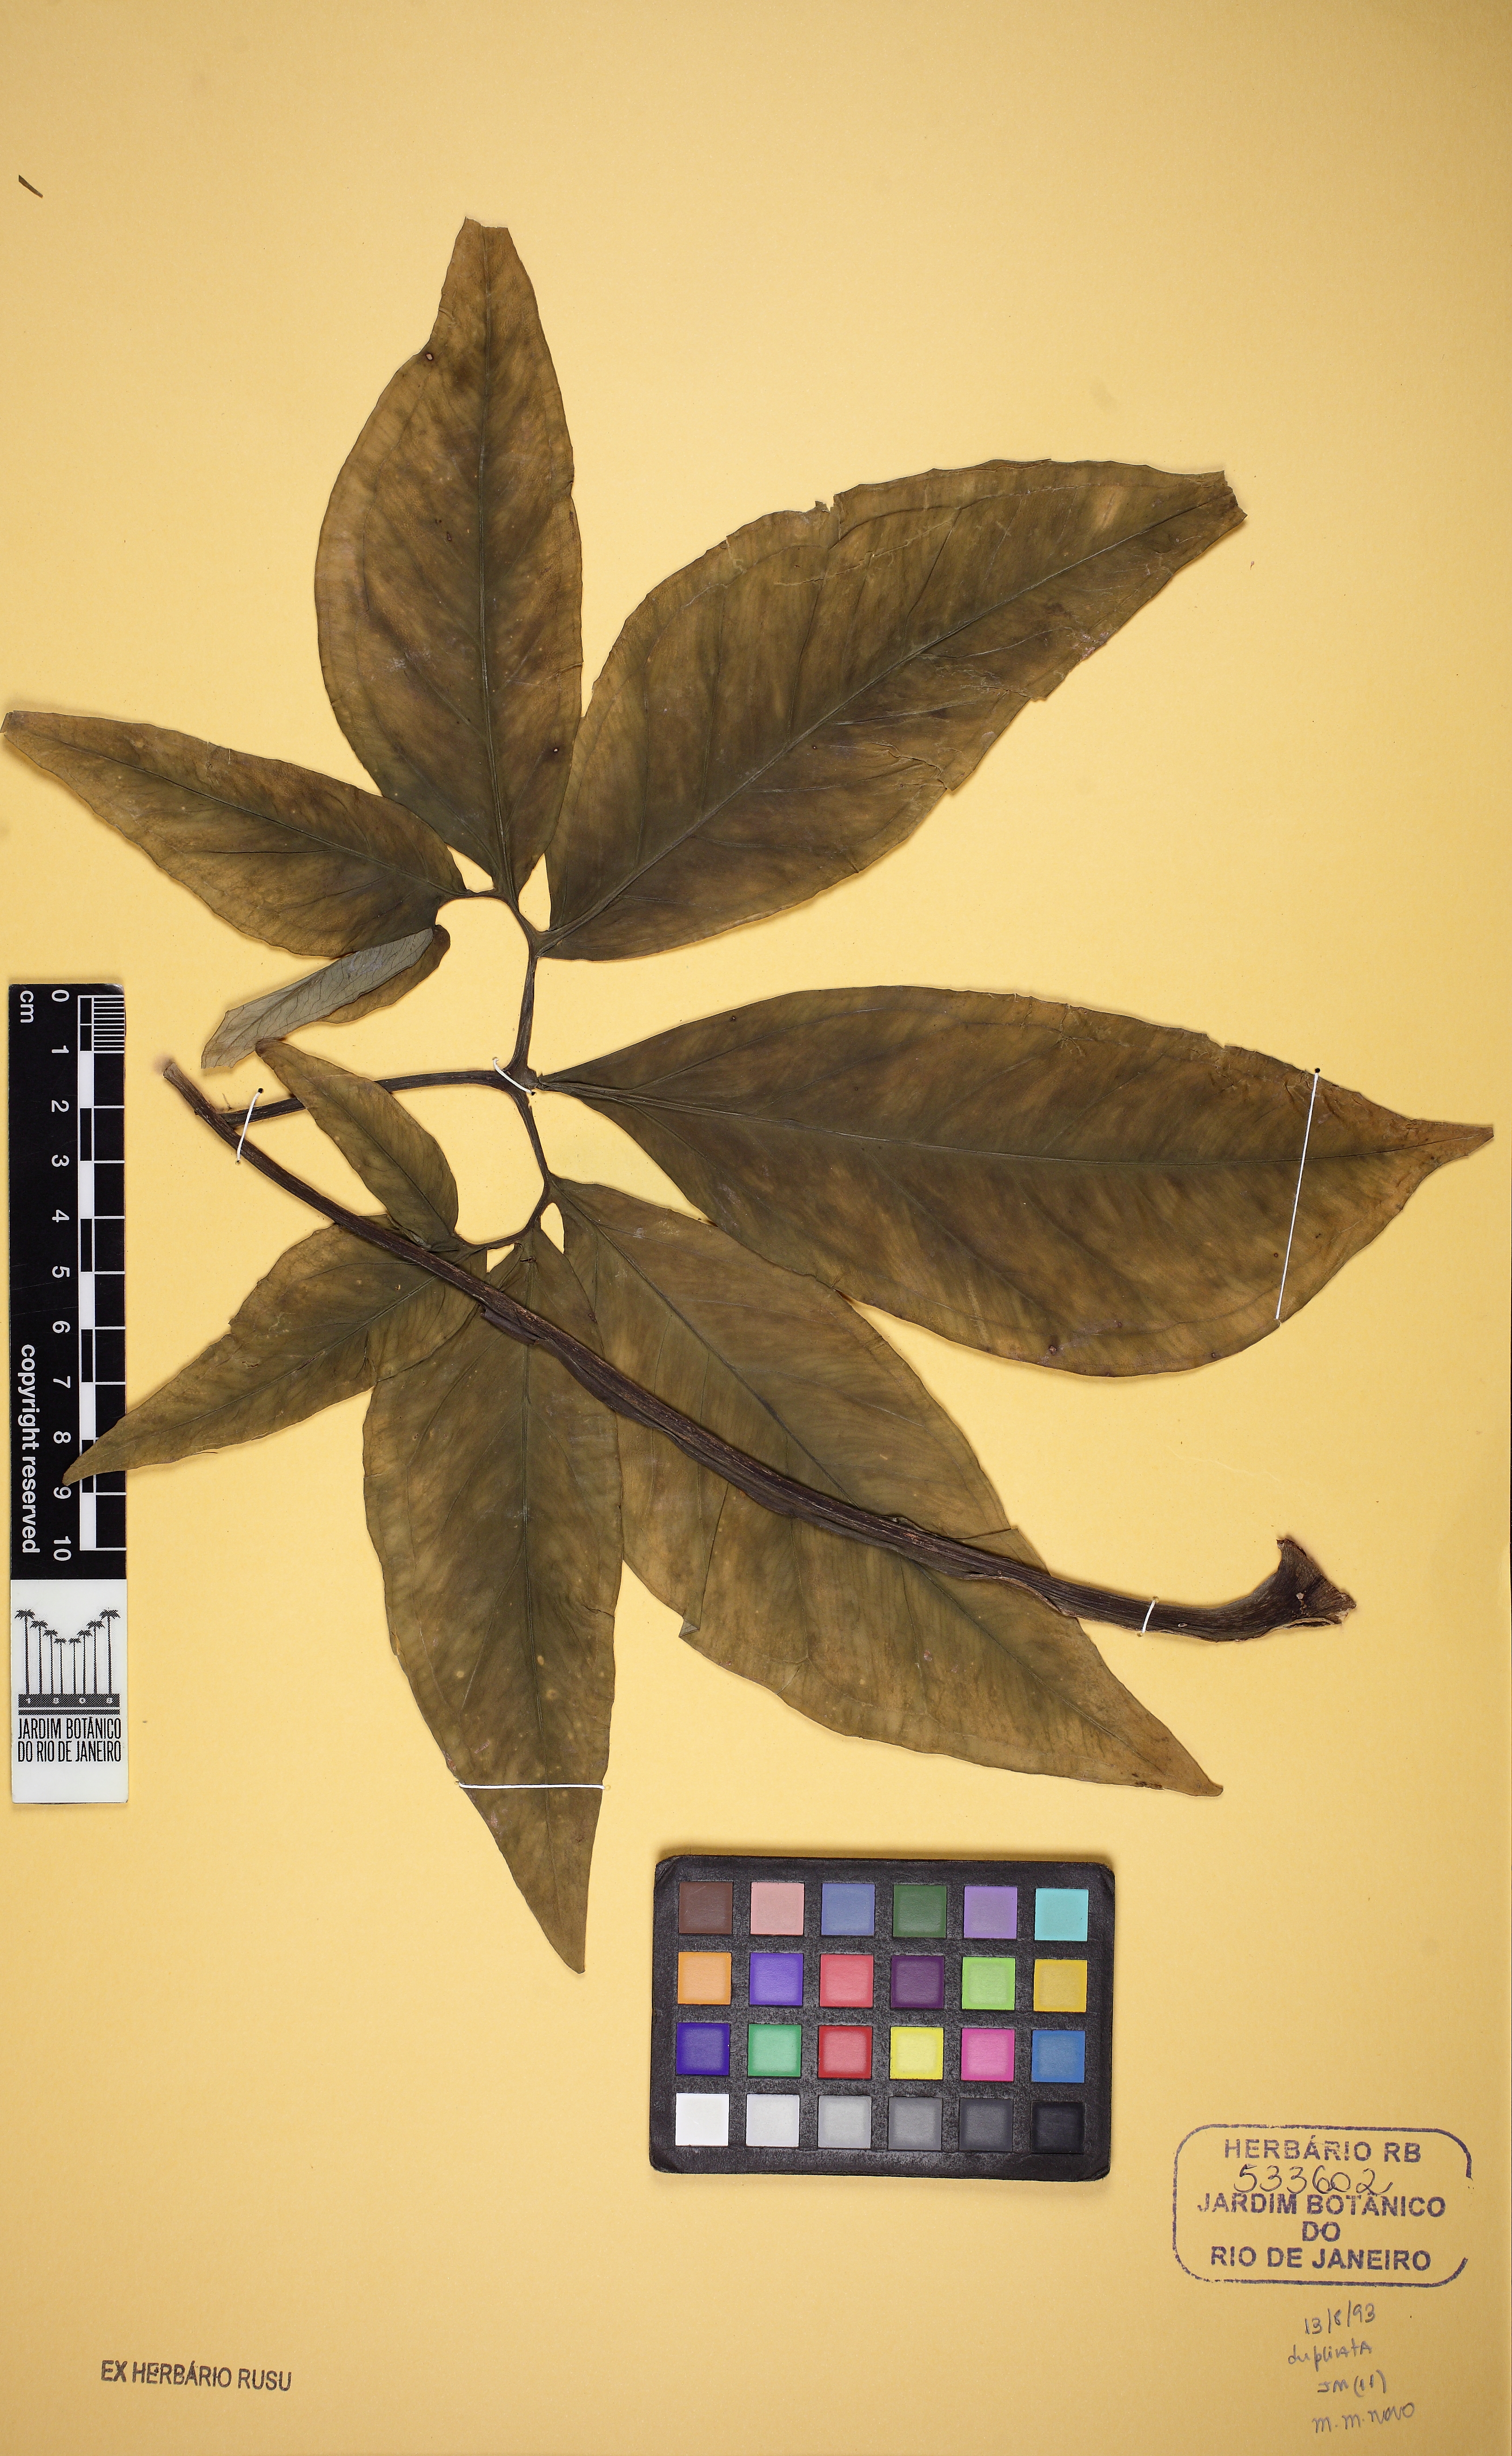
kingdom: Plantae
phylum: Tracheophyta
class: Liliopsida
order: Alismatales
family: Araceae
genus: Syngonium
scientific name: Syngonium podophyllum
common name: American evergreen
